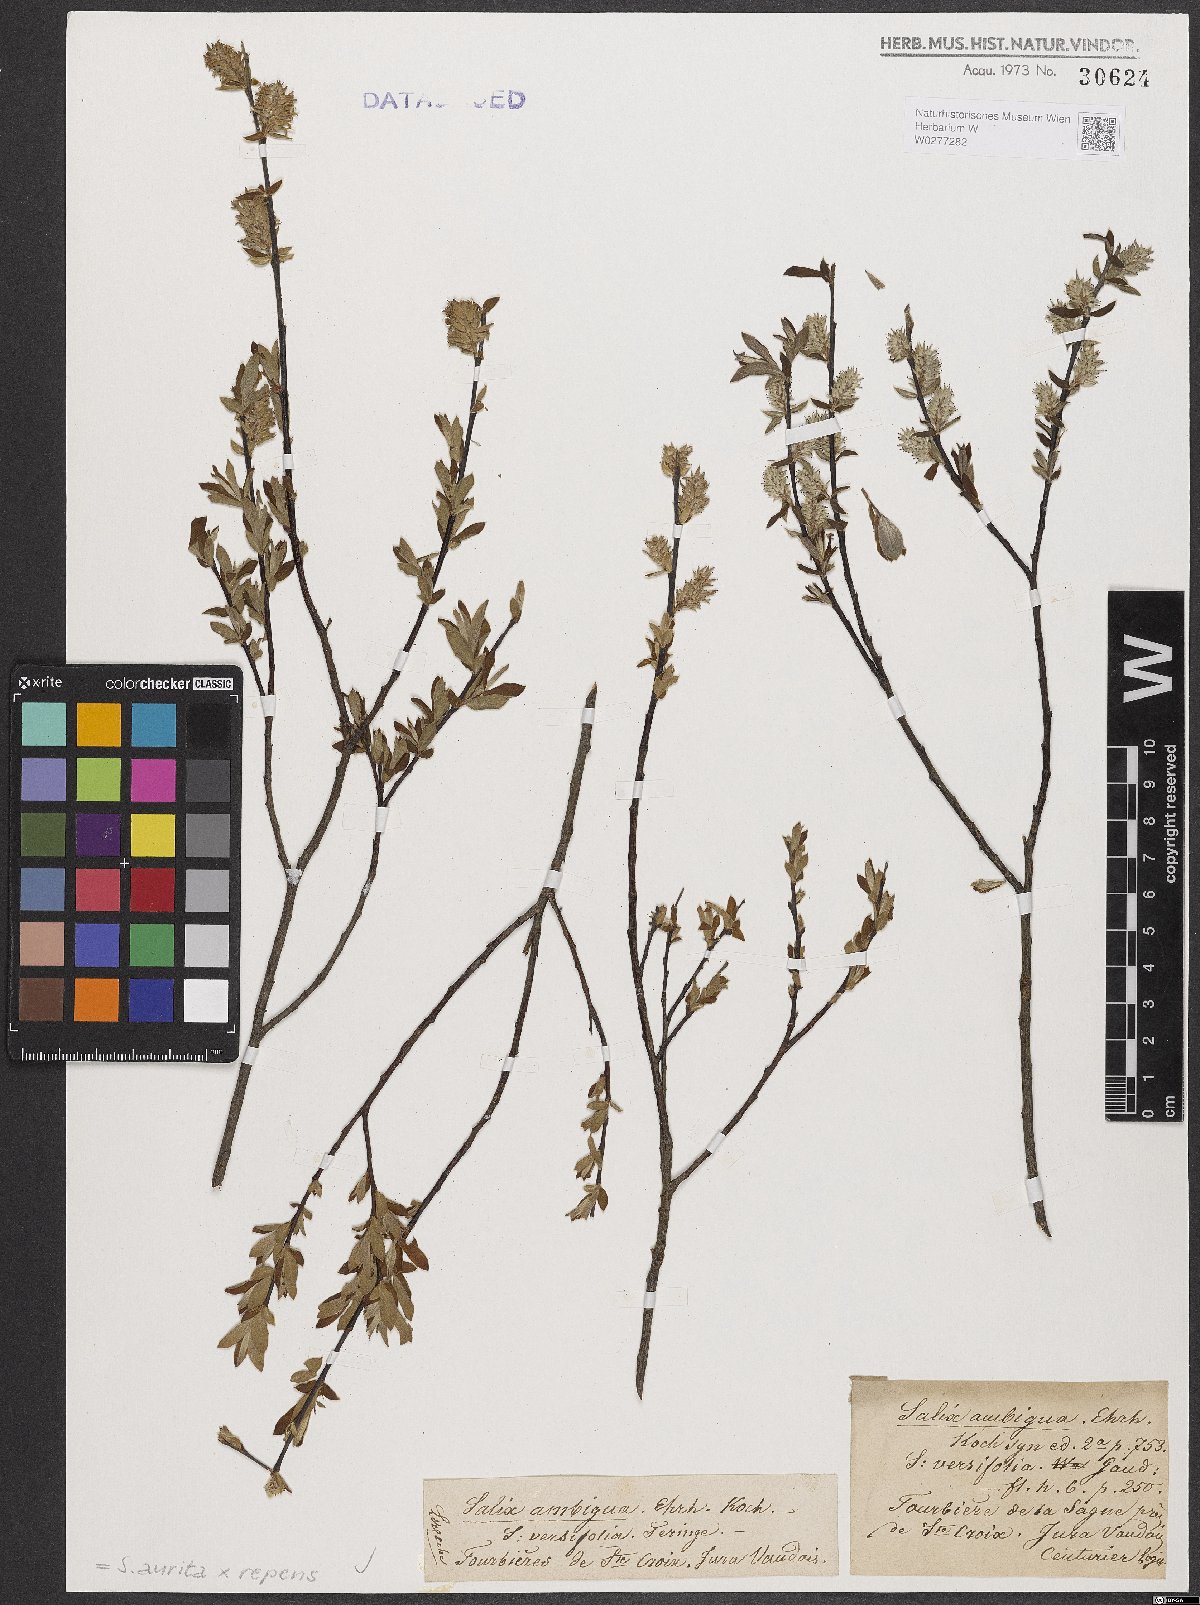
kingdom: Plantae
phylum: Tracheophyta
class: Magnoliopsida
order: Malpighiales
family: Salicaceae
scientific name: Salicaceae
